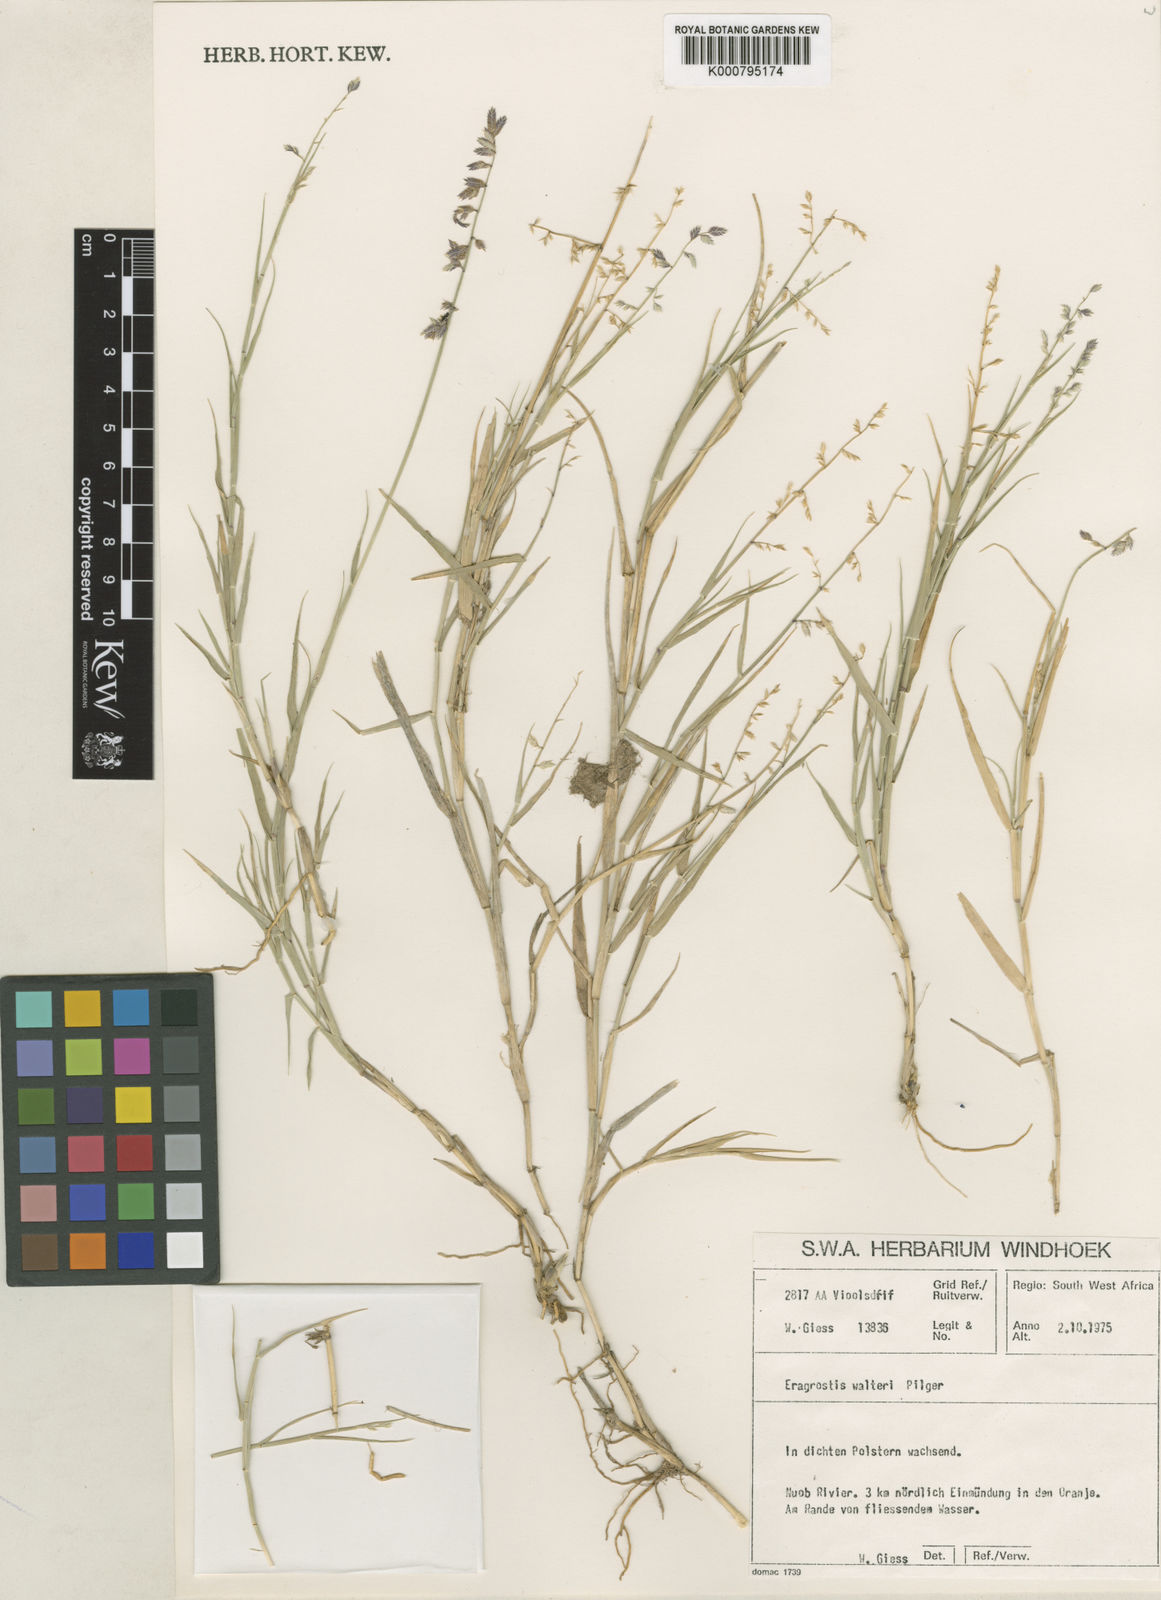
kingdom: Plantae
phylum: Tracheophyta
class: Liliopsida
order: Poales
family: Poaceae
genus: Pratochloa
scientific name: Pratochloa walteri
